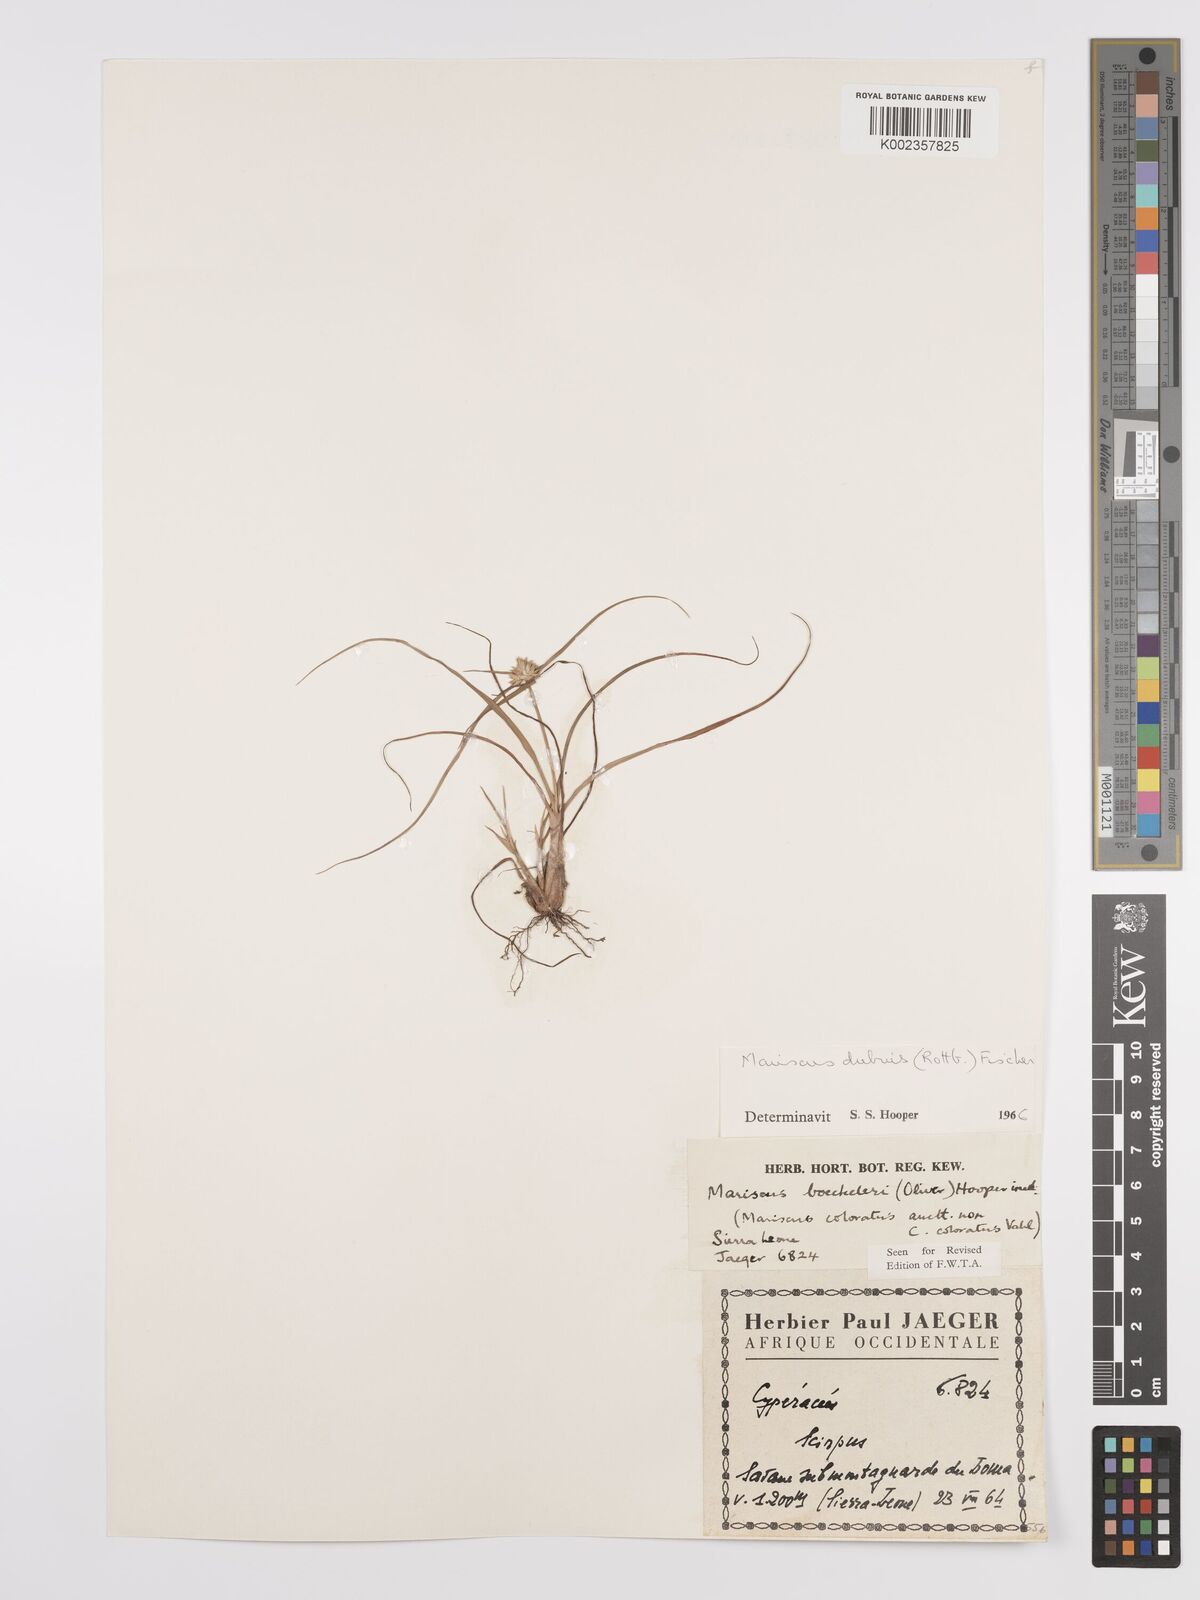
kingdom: Plantae
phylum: Tracheophyta
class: Liliopsida
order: Poales
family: Cyperaceae
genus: Cyperus
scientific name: Cyperus dubius
